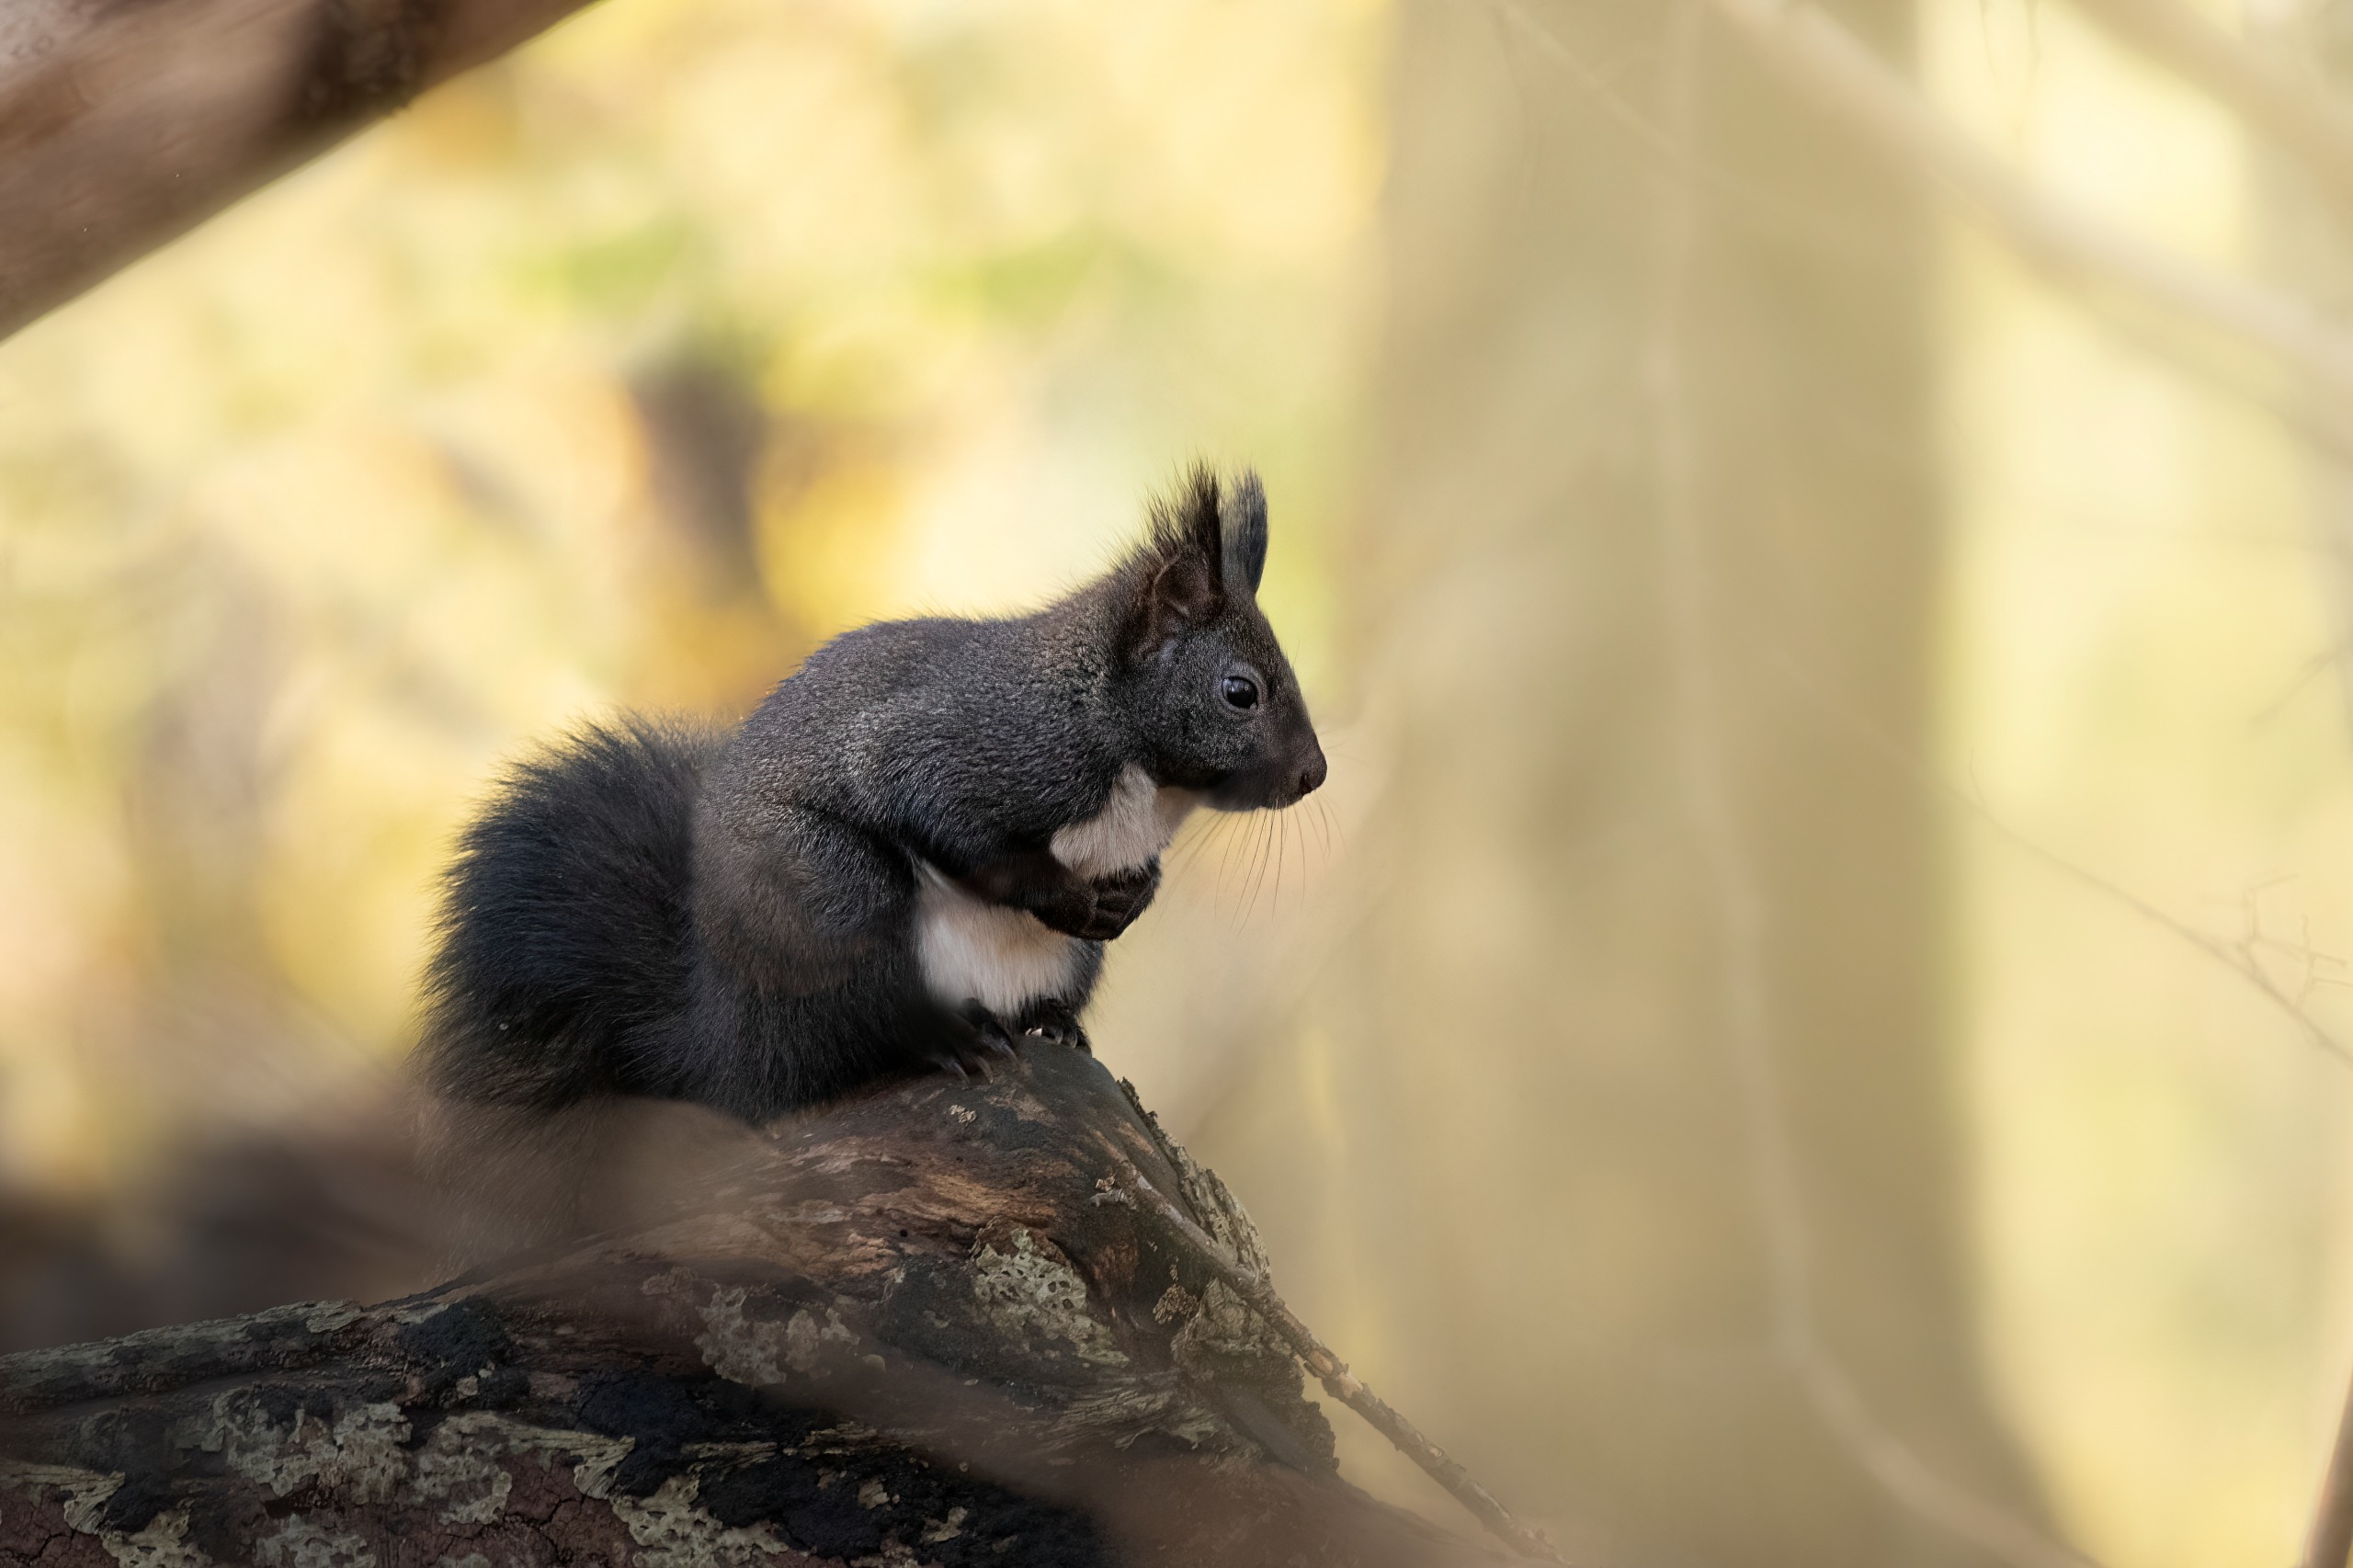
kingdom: Animalia
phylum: Chordata
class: Mammalia
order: Rodentia
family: Sciuridae
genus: Sciurus
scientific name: Sciurus vulgaris
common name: Egern
